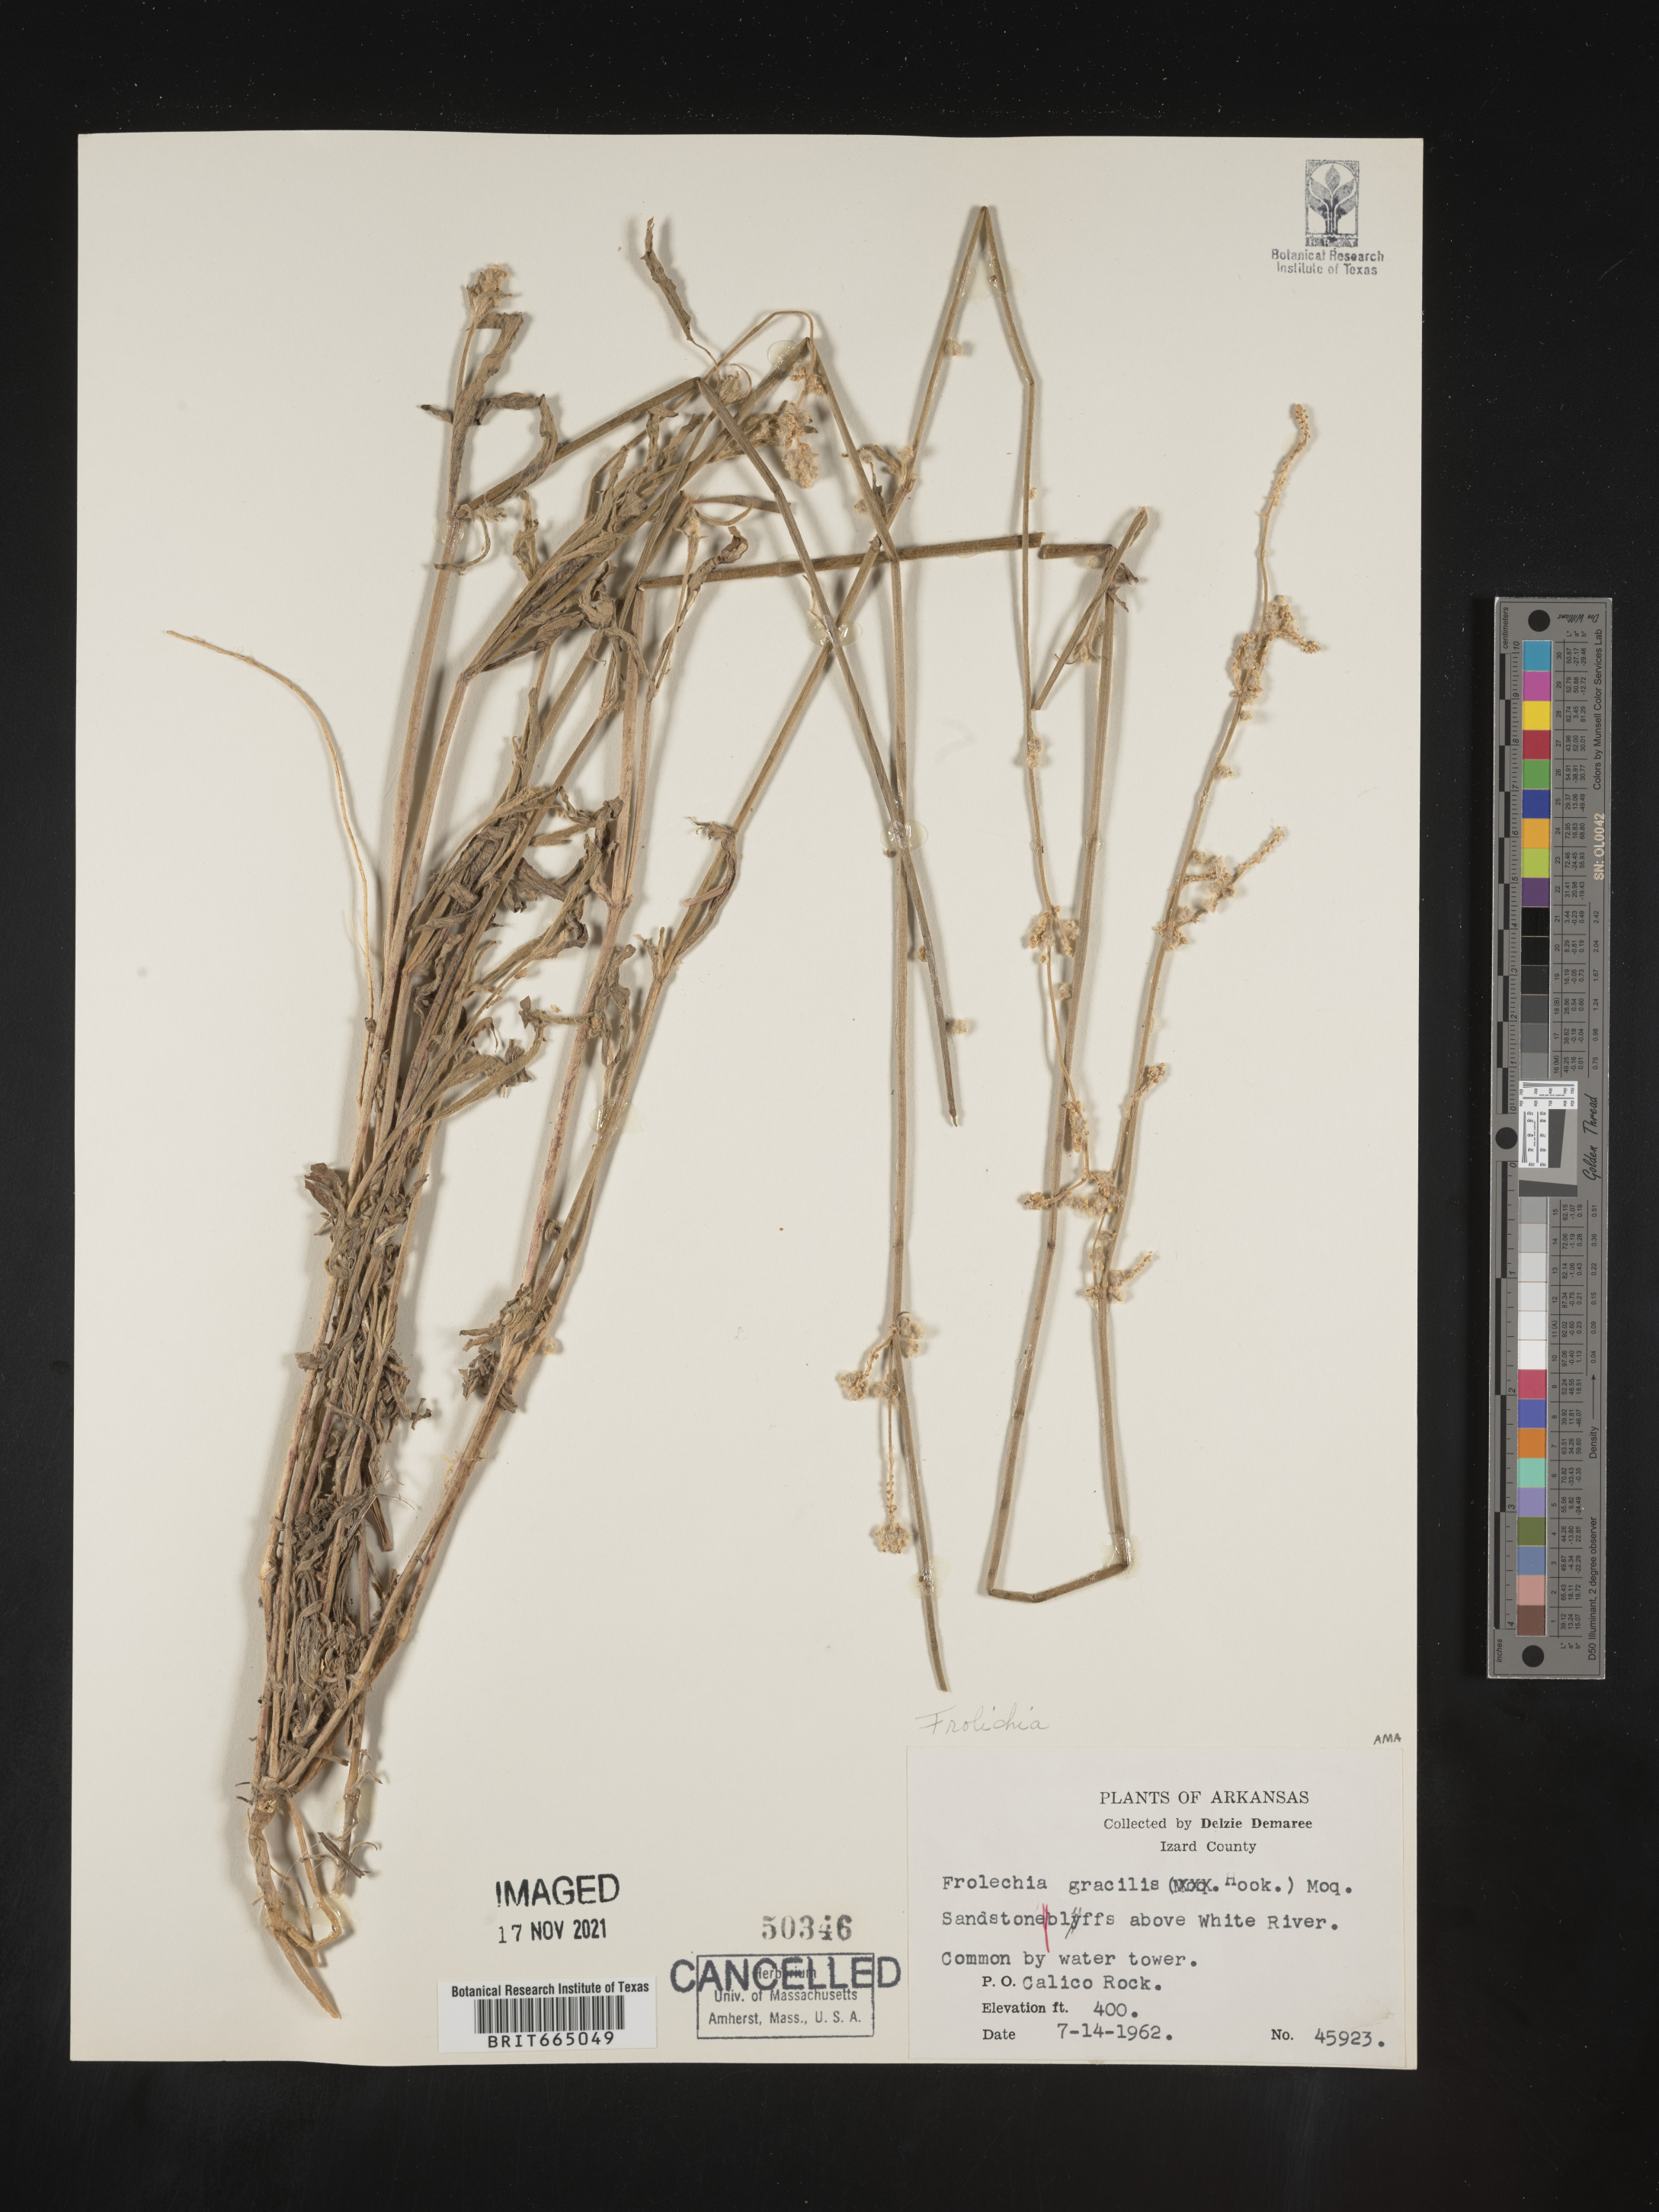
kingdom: Plantae
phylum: Tracheophyta
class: Magnoliopsida
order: Caryophyllales
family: Amaranthaceae
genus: Froelichia
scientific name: Froelichia gracilis
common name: Slender cottonweed
